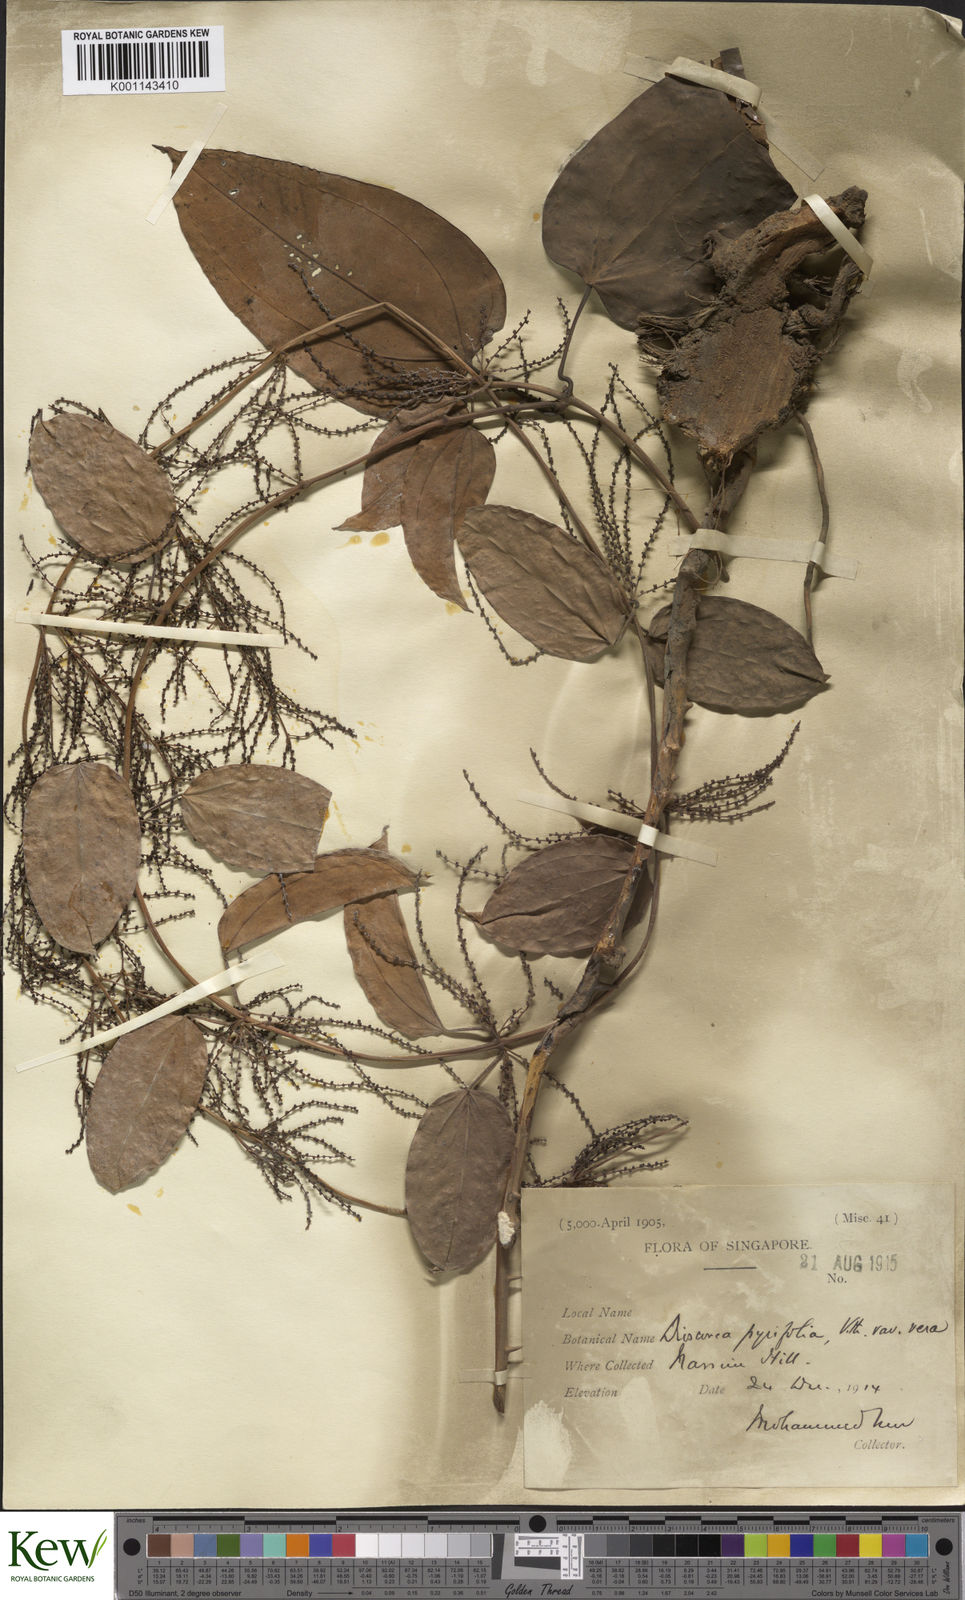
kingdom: Plantae
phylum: Tracheophyta
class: Liliopsida
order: Dioscoreales
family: Dioscoreaceae
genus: Dioscorea
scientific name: Dioscorea pyrifolia
